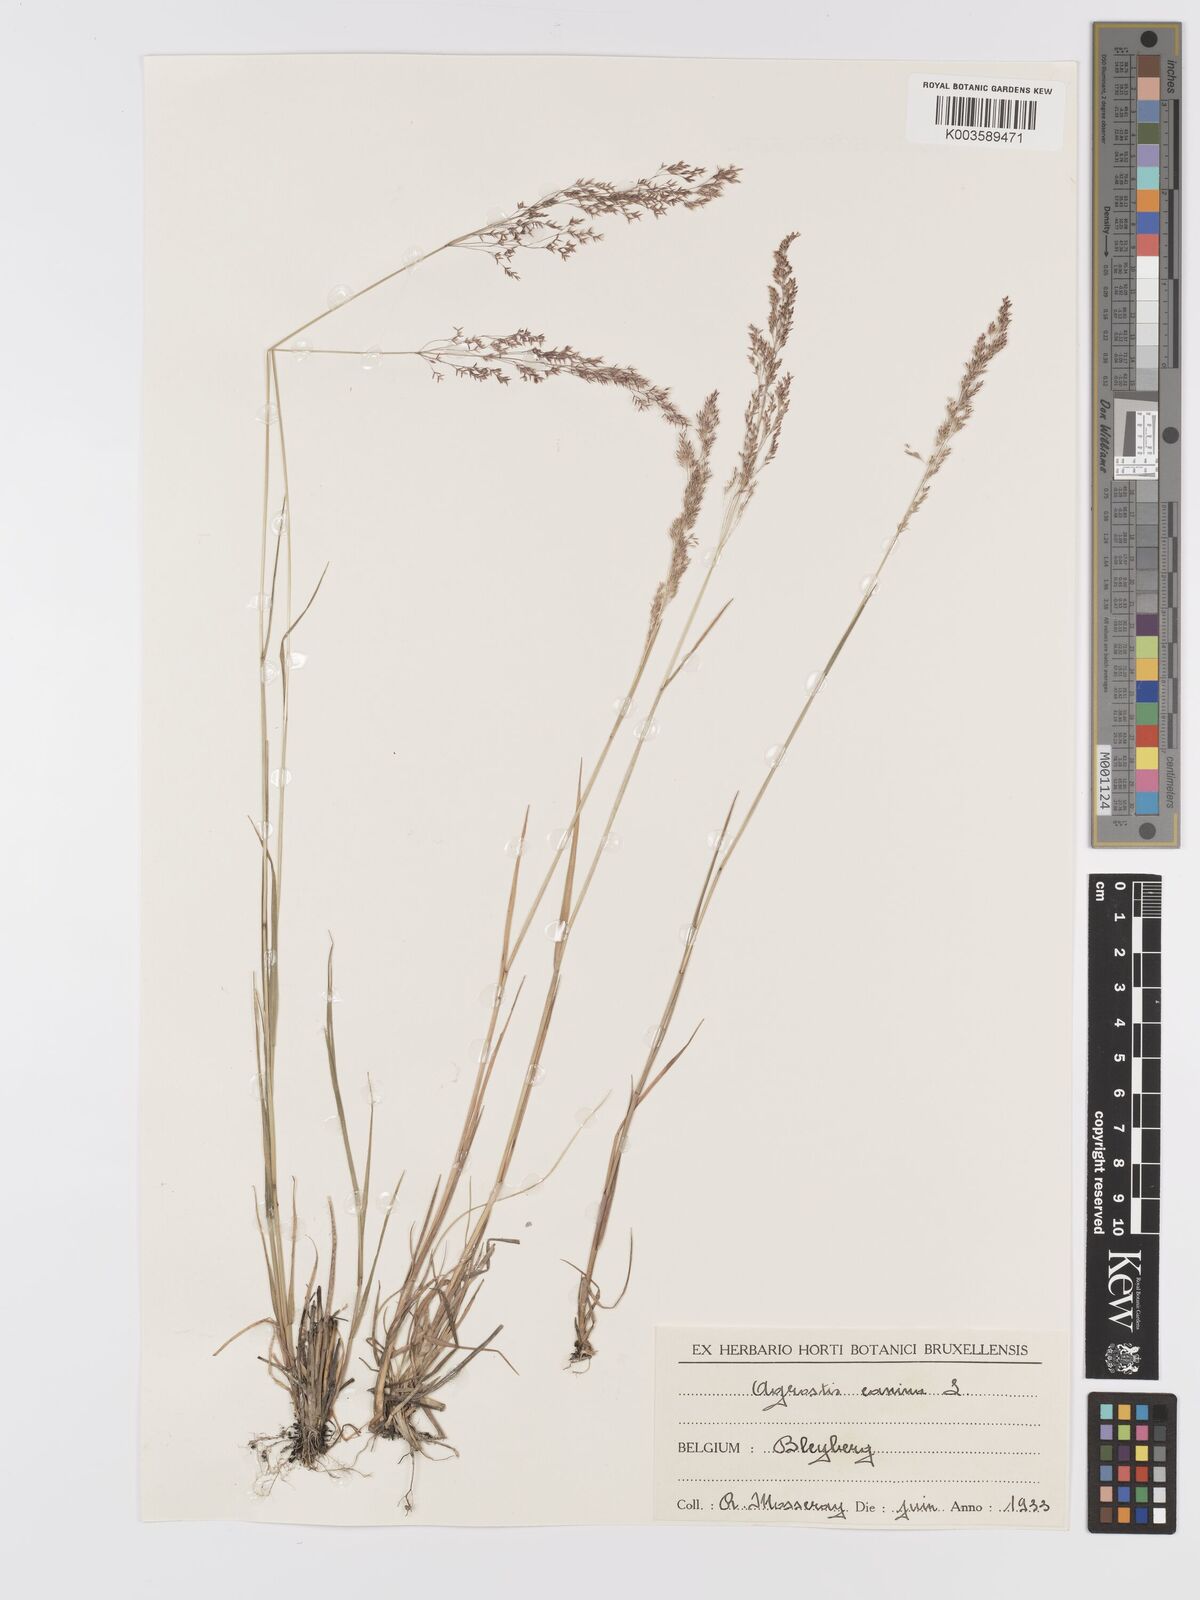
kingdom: Plantae
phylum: Tracheophyta
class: Liliopsida
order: Poales
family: Poaceae
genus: Agrostis
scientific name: Agrostis canina
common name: Velvet bent
